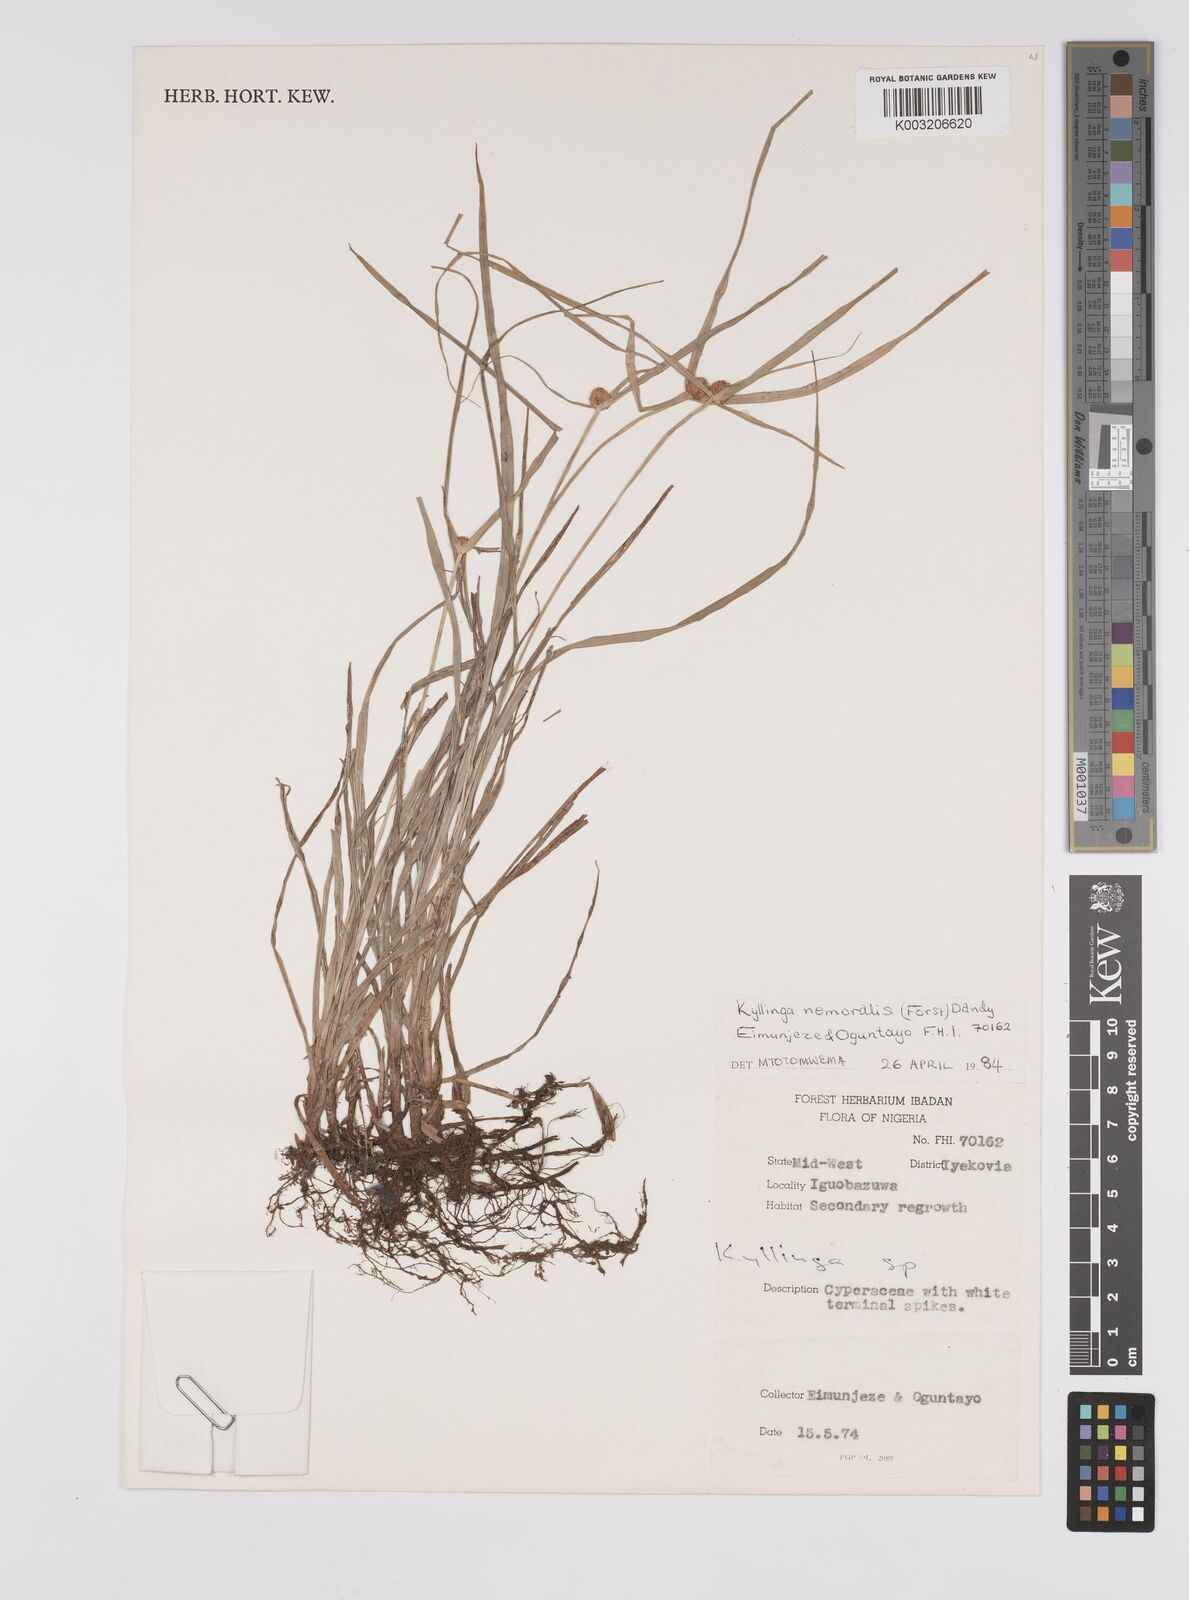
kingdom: Plantae
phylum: Tracheophyta
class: Liliopsida
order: Poales
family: Cyperaceae
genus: Cyperus
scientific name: Cyperus
